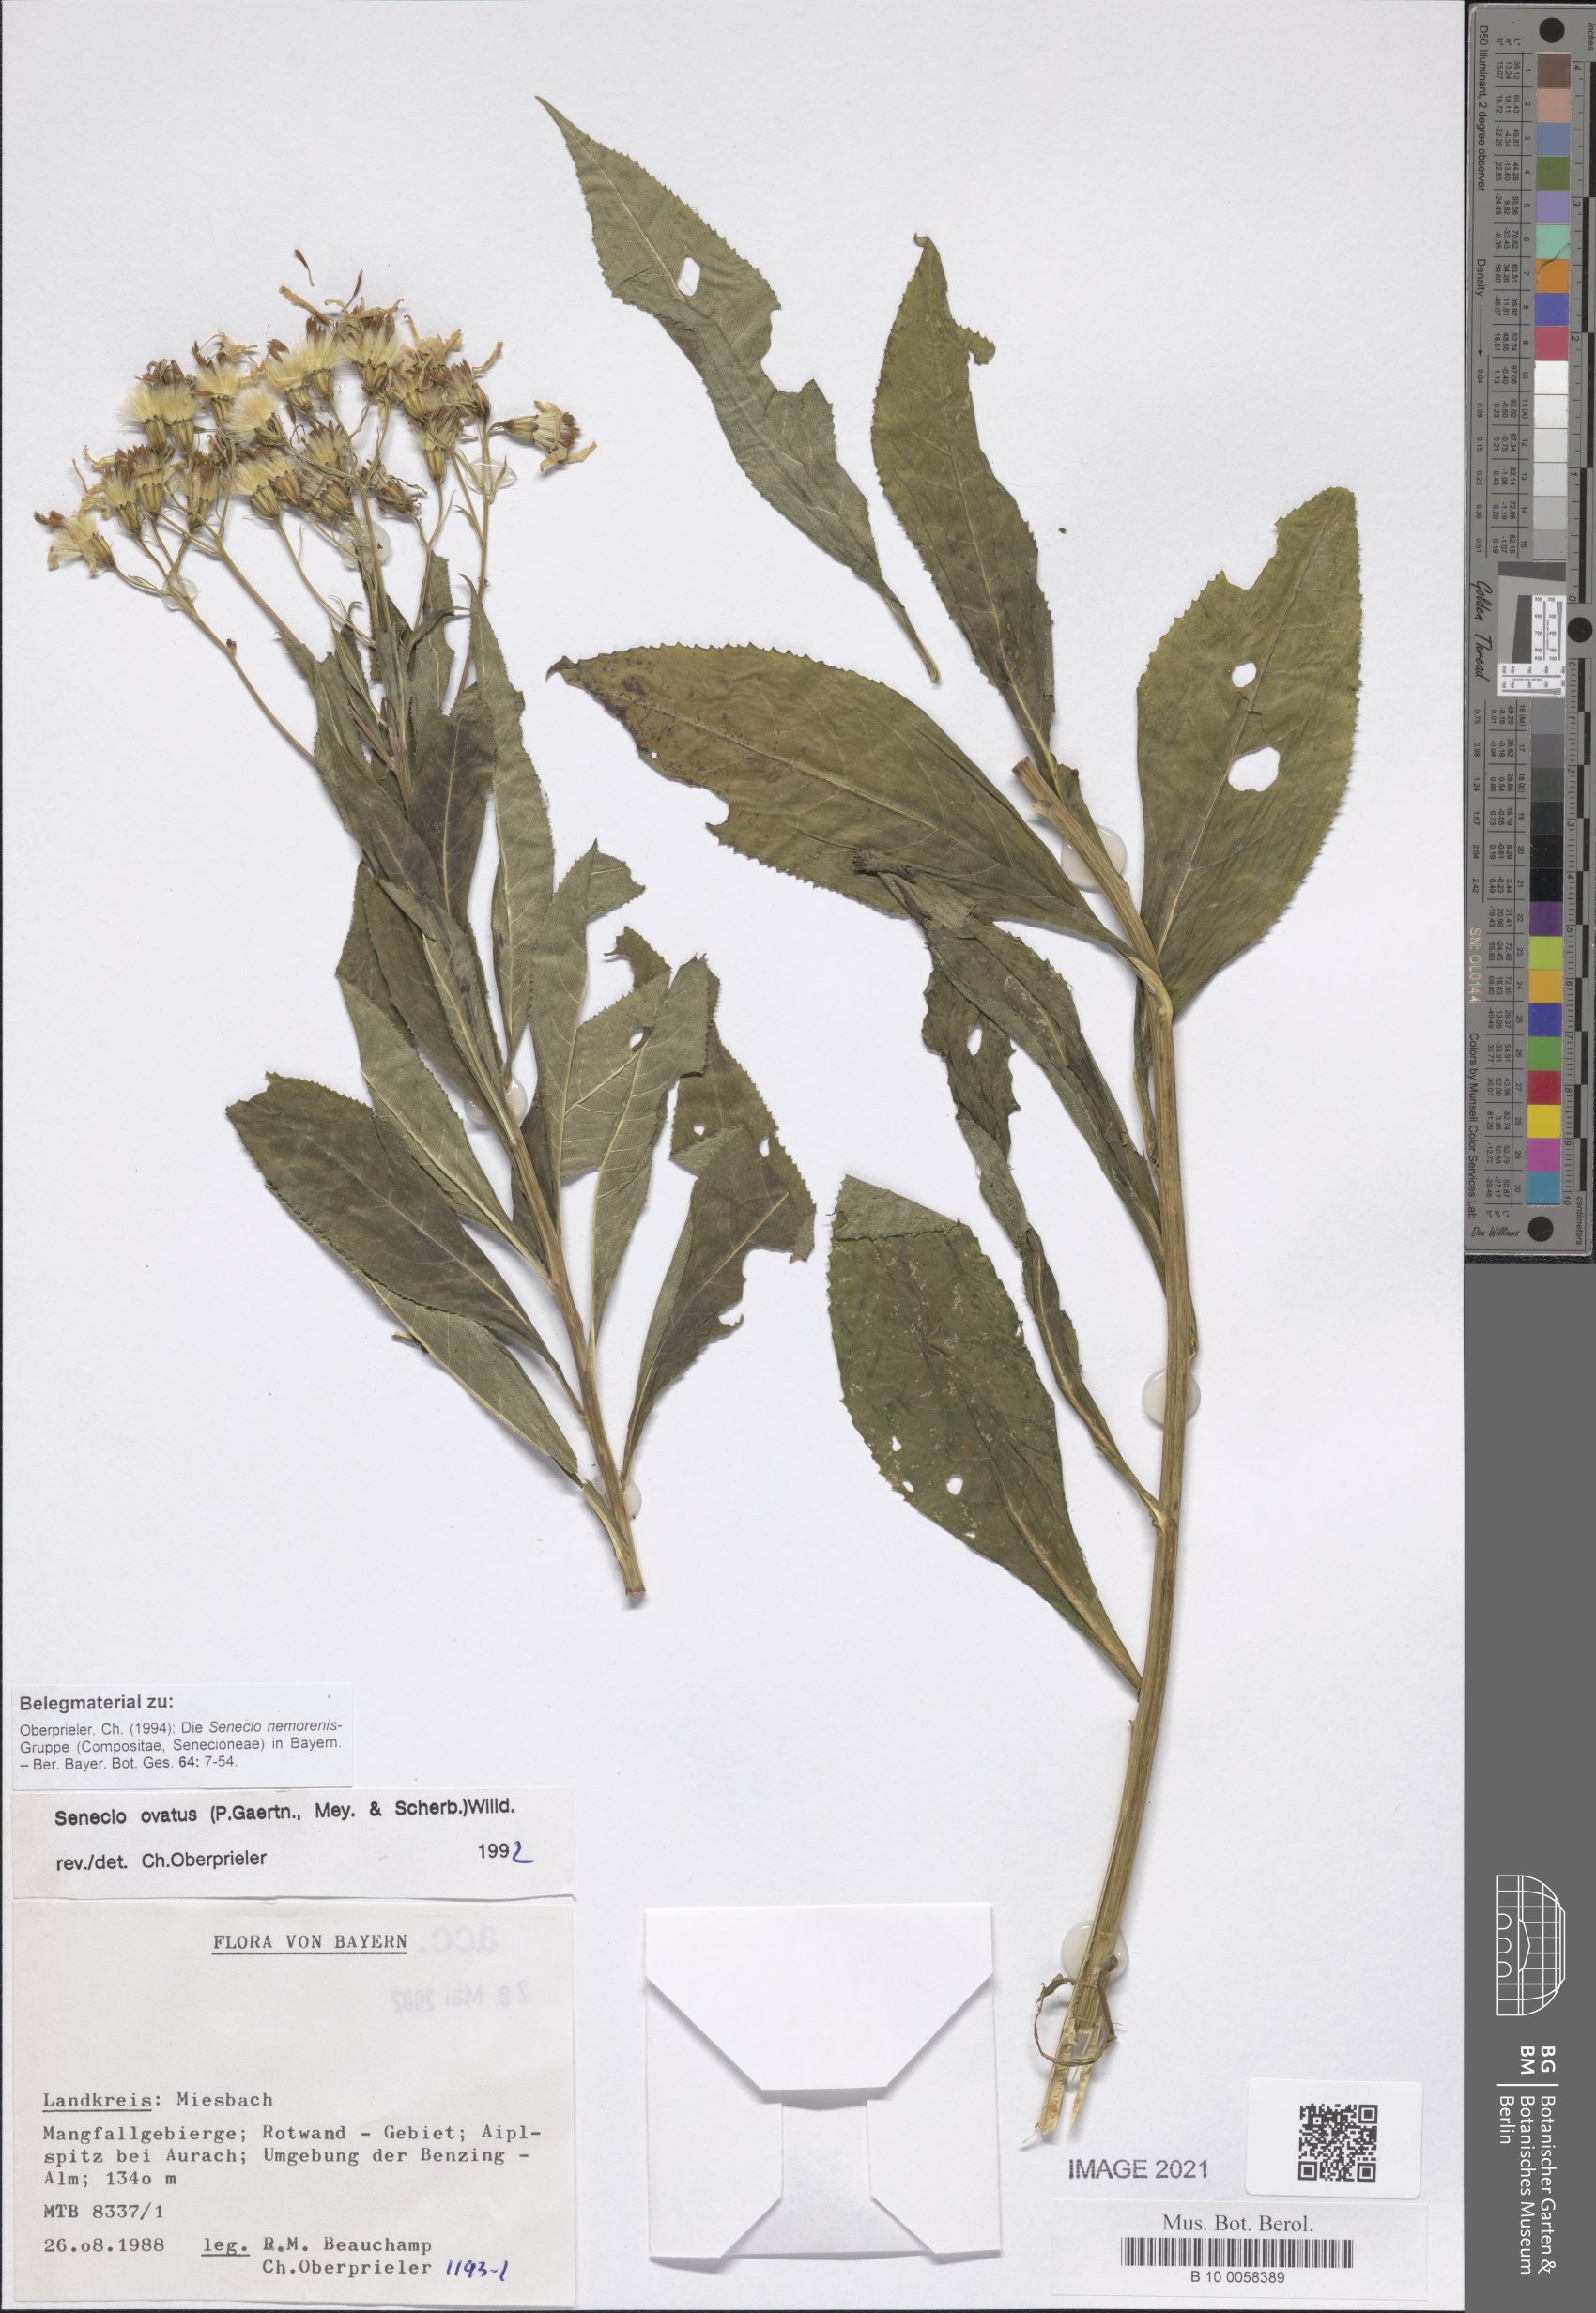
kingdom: Plantae
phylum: Tracheophyta
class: Magnoliopsida
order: Asterales
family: Asteraceae
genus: Senecio
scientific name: Senecio ovatus
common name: Wood ragwort
